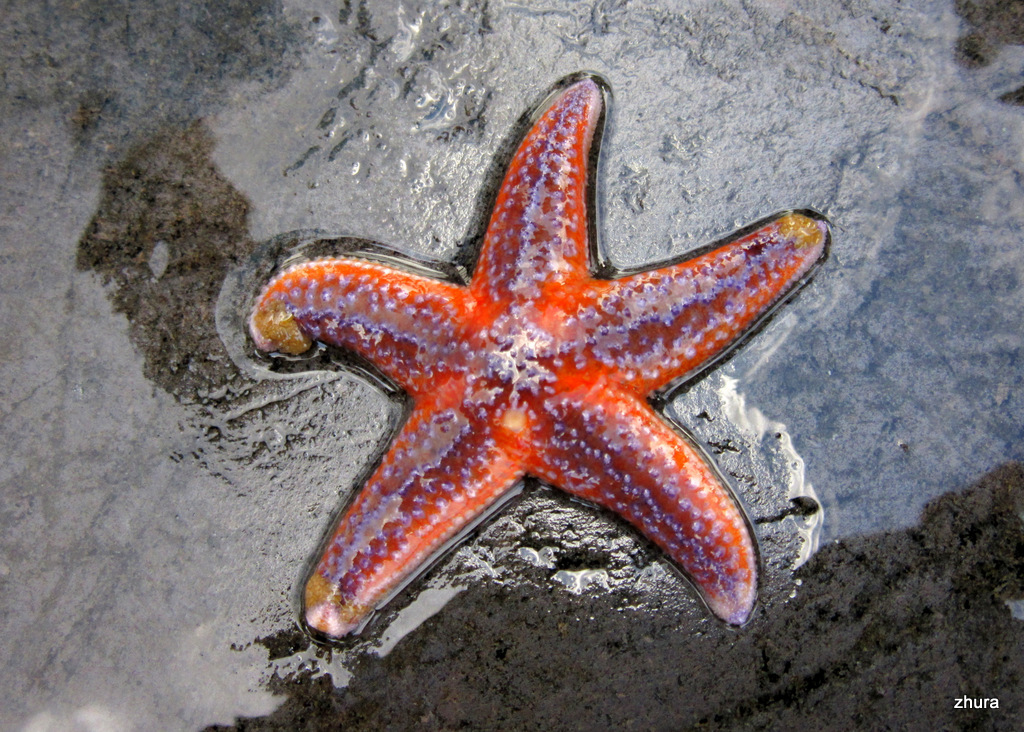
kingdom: Animalia
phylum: Echinodermata
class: Asteroidea
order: Forcipulatida
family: Asteriidae
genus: Asterias
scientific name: Asterias rubens
